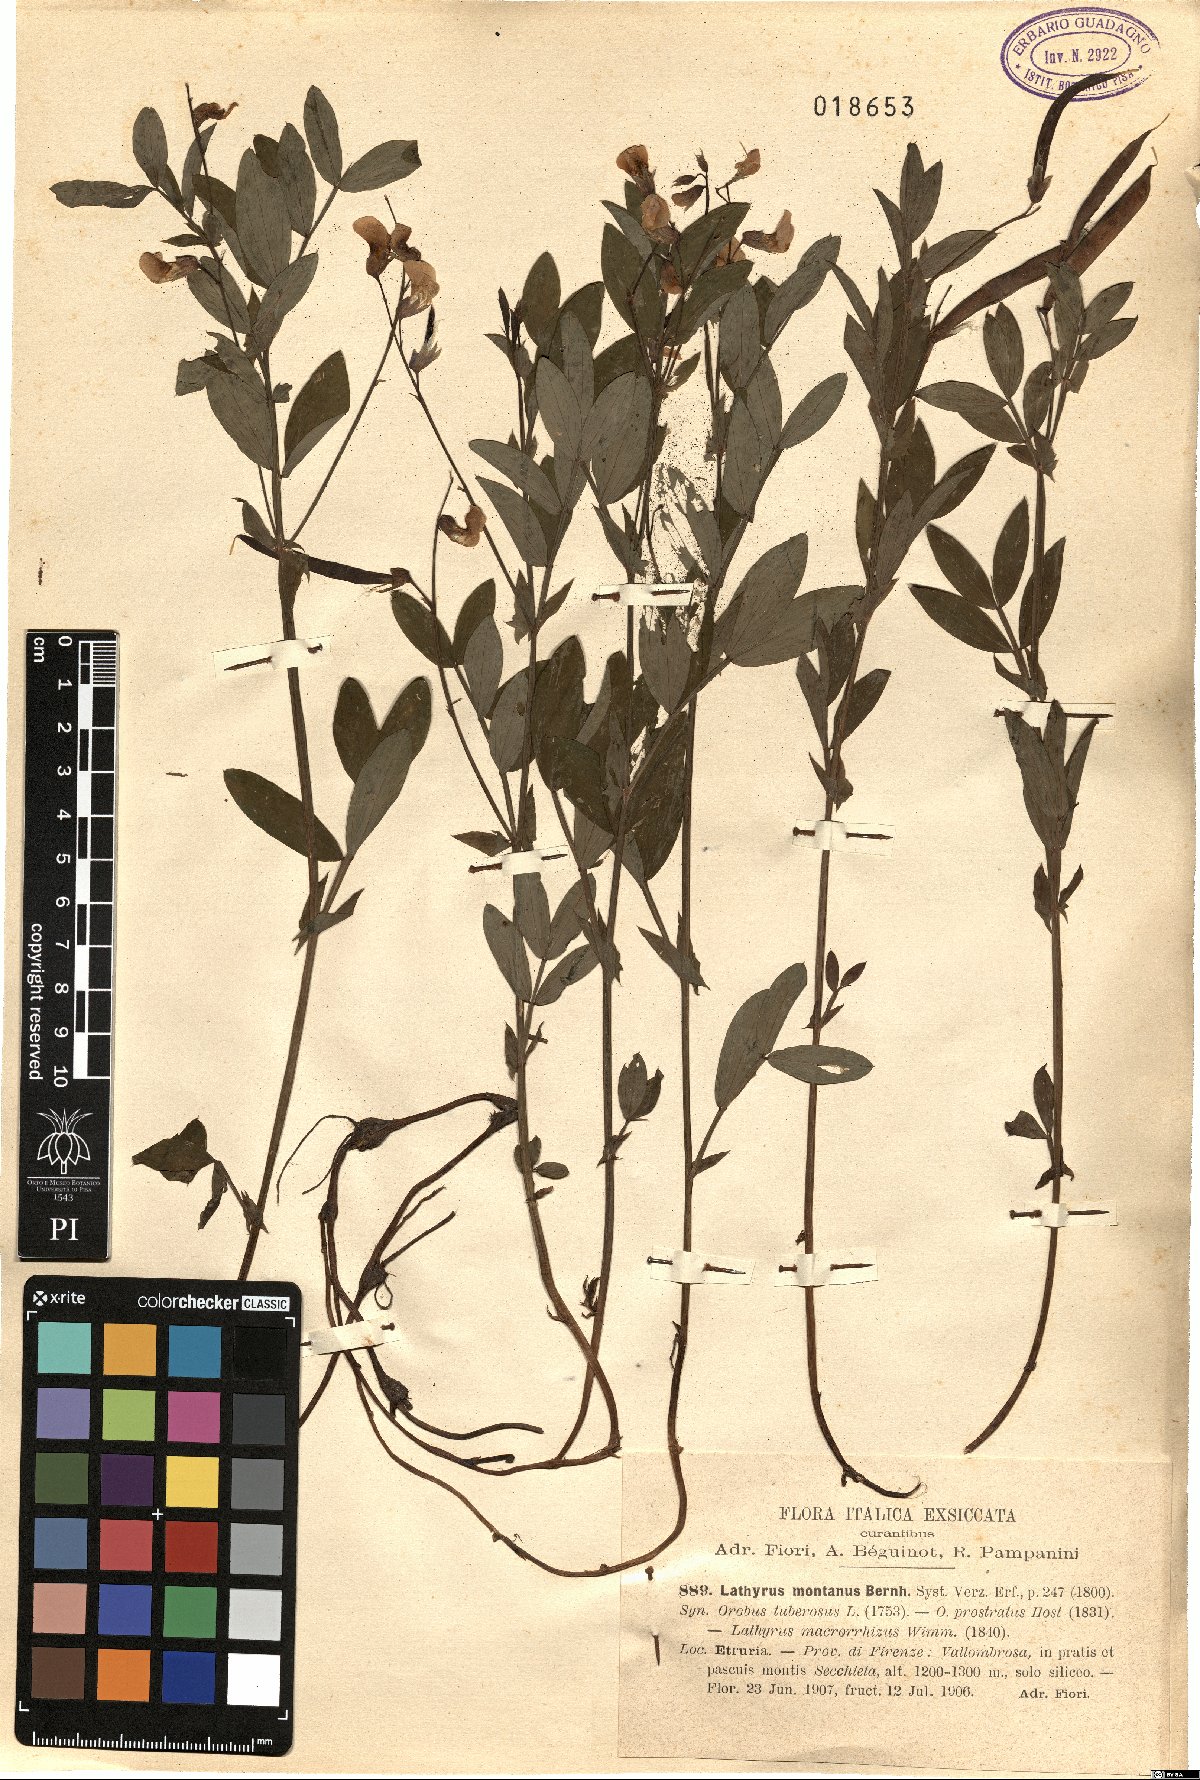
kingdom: Plantae
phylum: Tracheophyta
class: Magnoliopsida
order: Fabales
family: Fabaceae
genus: Lathyrus
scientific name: Lathyrus linifolius
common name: Bitter-vetch
